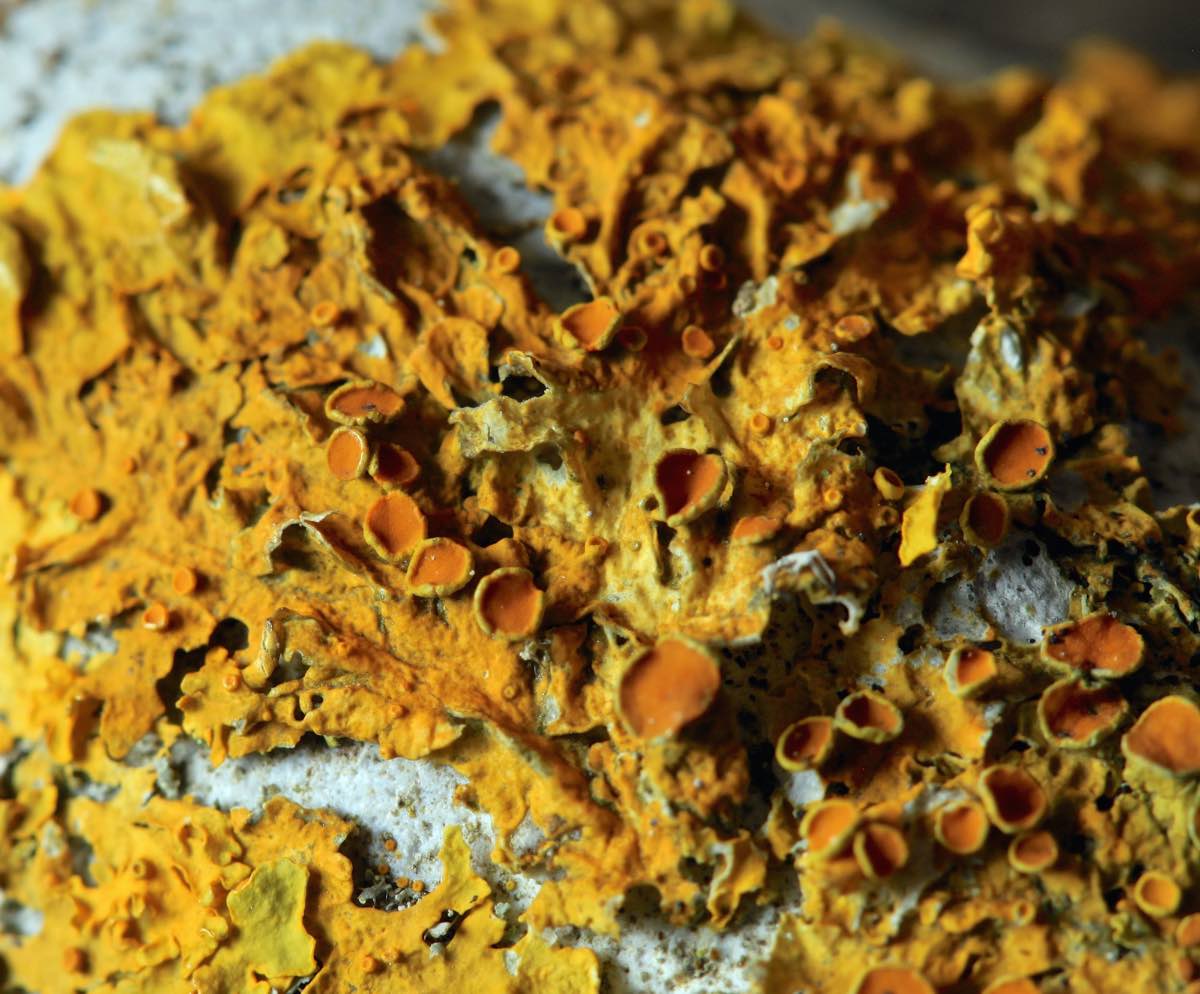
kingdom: Fungi
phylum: Ascomycota
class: Lecanoromycetes
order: Teloschistales
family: Teloschistaceae
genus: Xanthoria
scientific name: Xanthoria parietina
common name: almindelig væggelav
